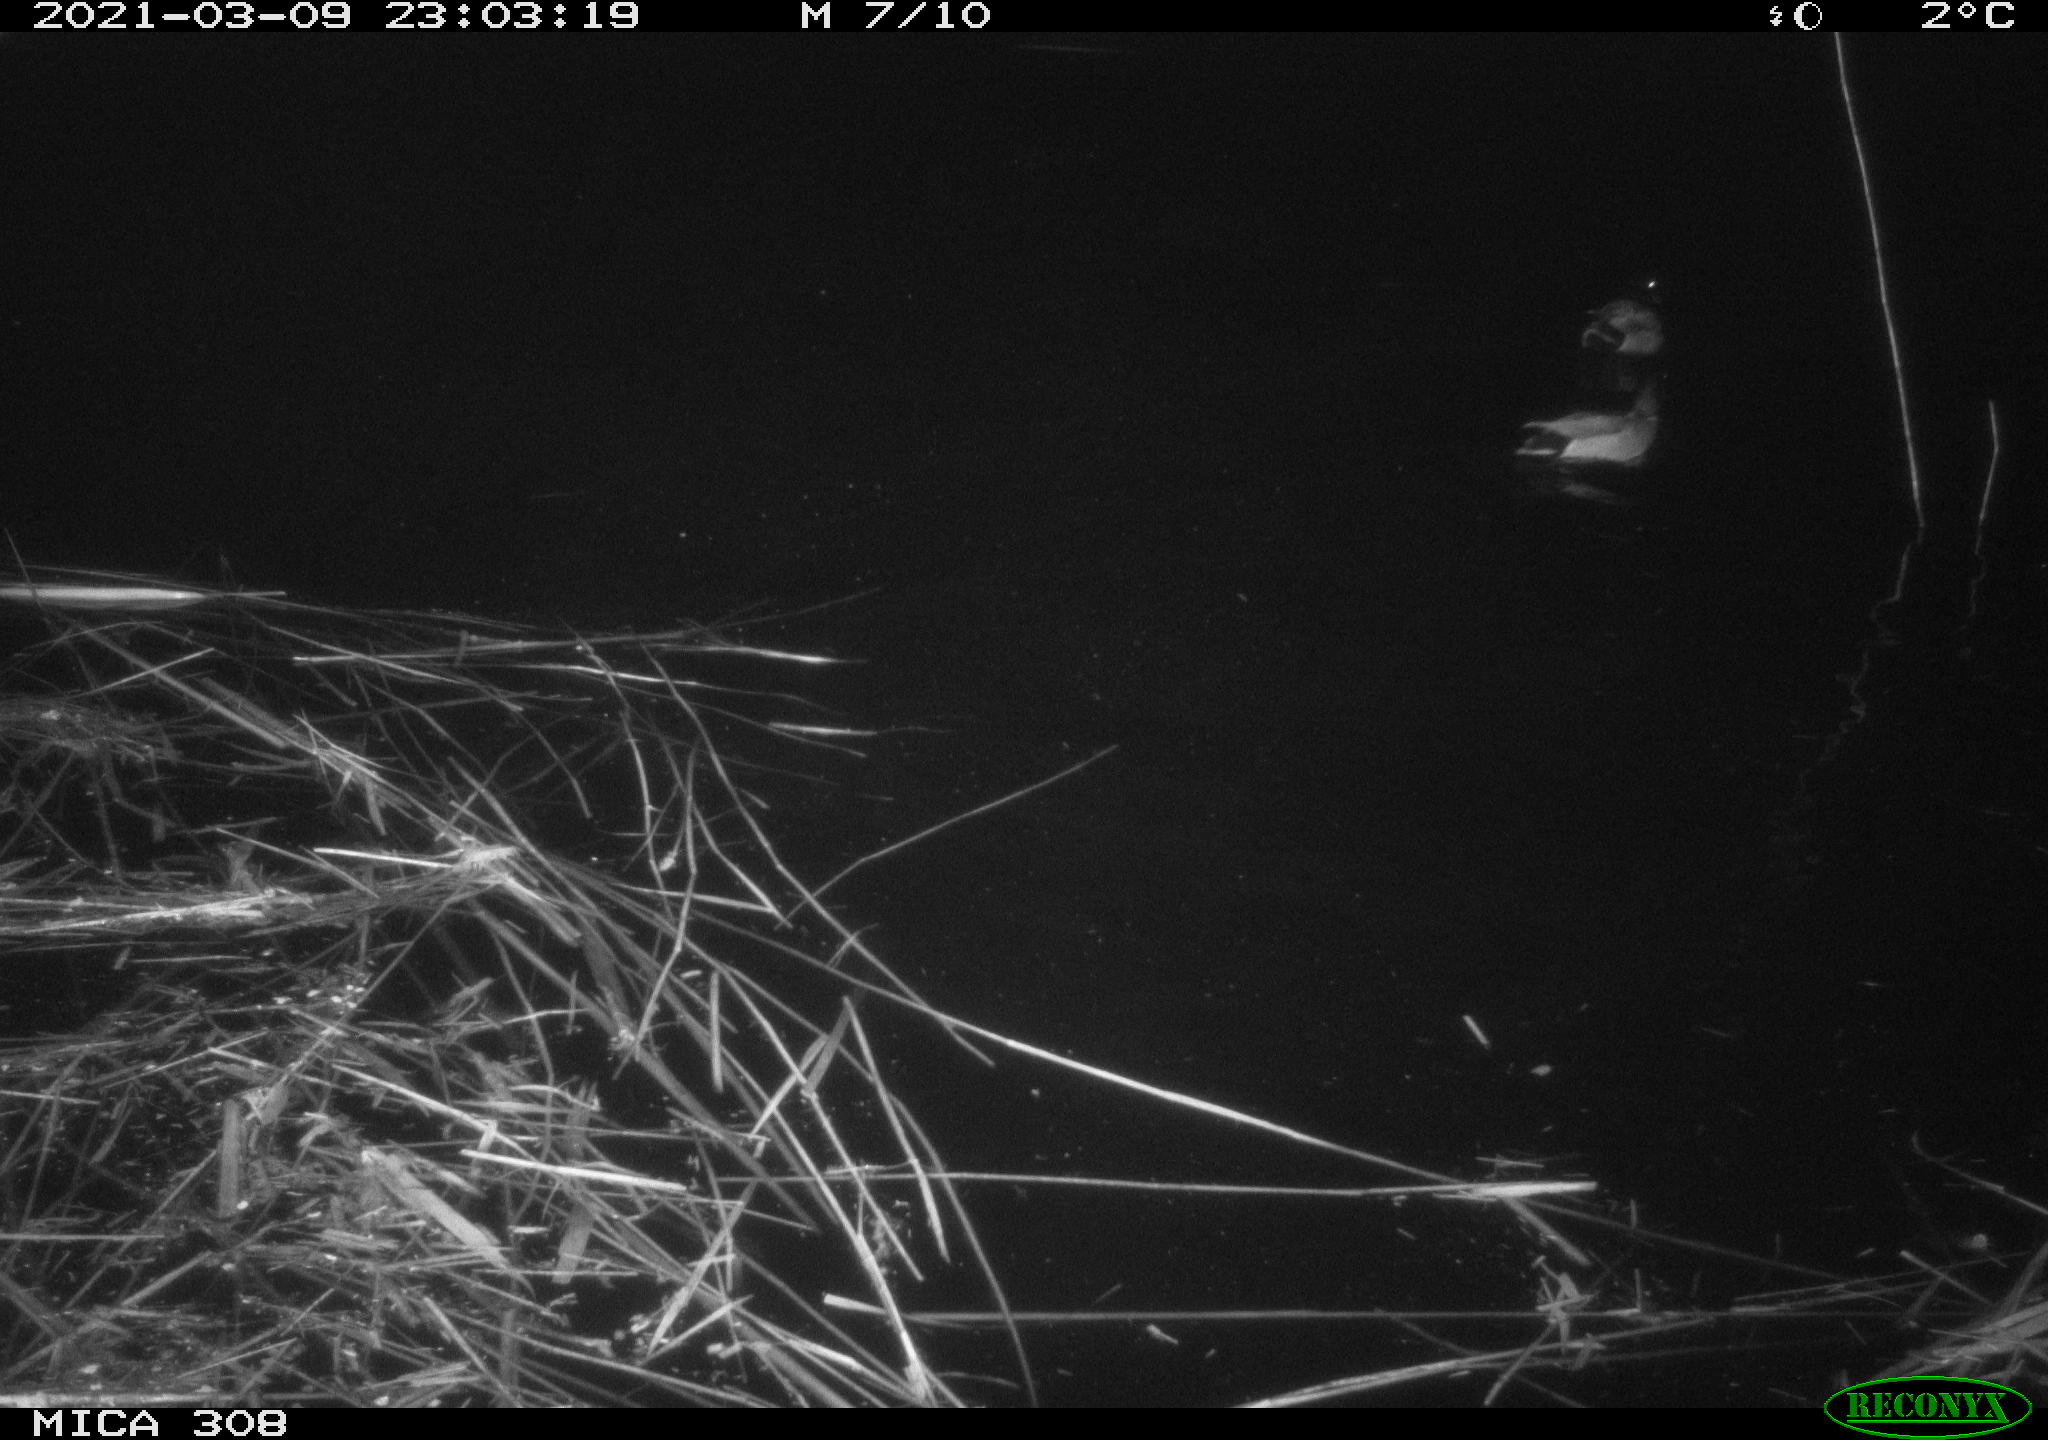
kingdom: Animalia
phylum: Chordata
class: Aves
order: Anseriformes
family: Anatidae
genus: Anas
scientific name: Anas platyrhynchos
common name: Mallard
